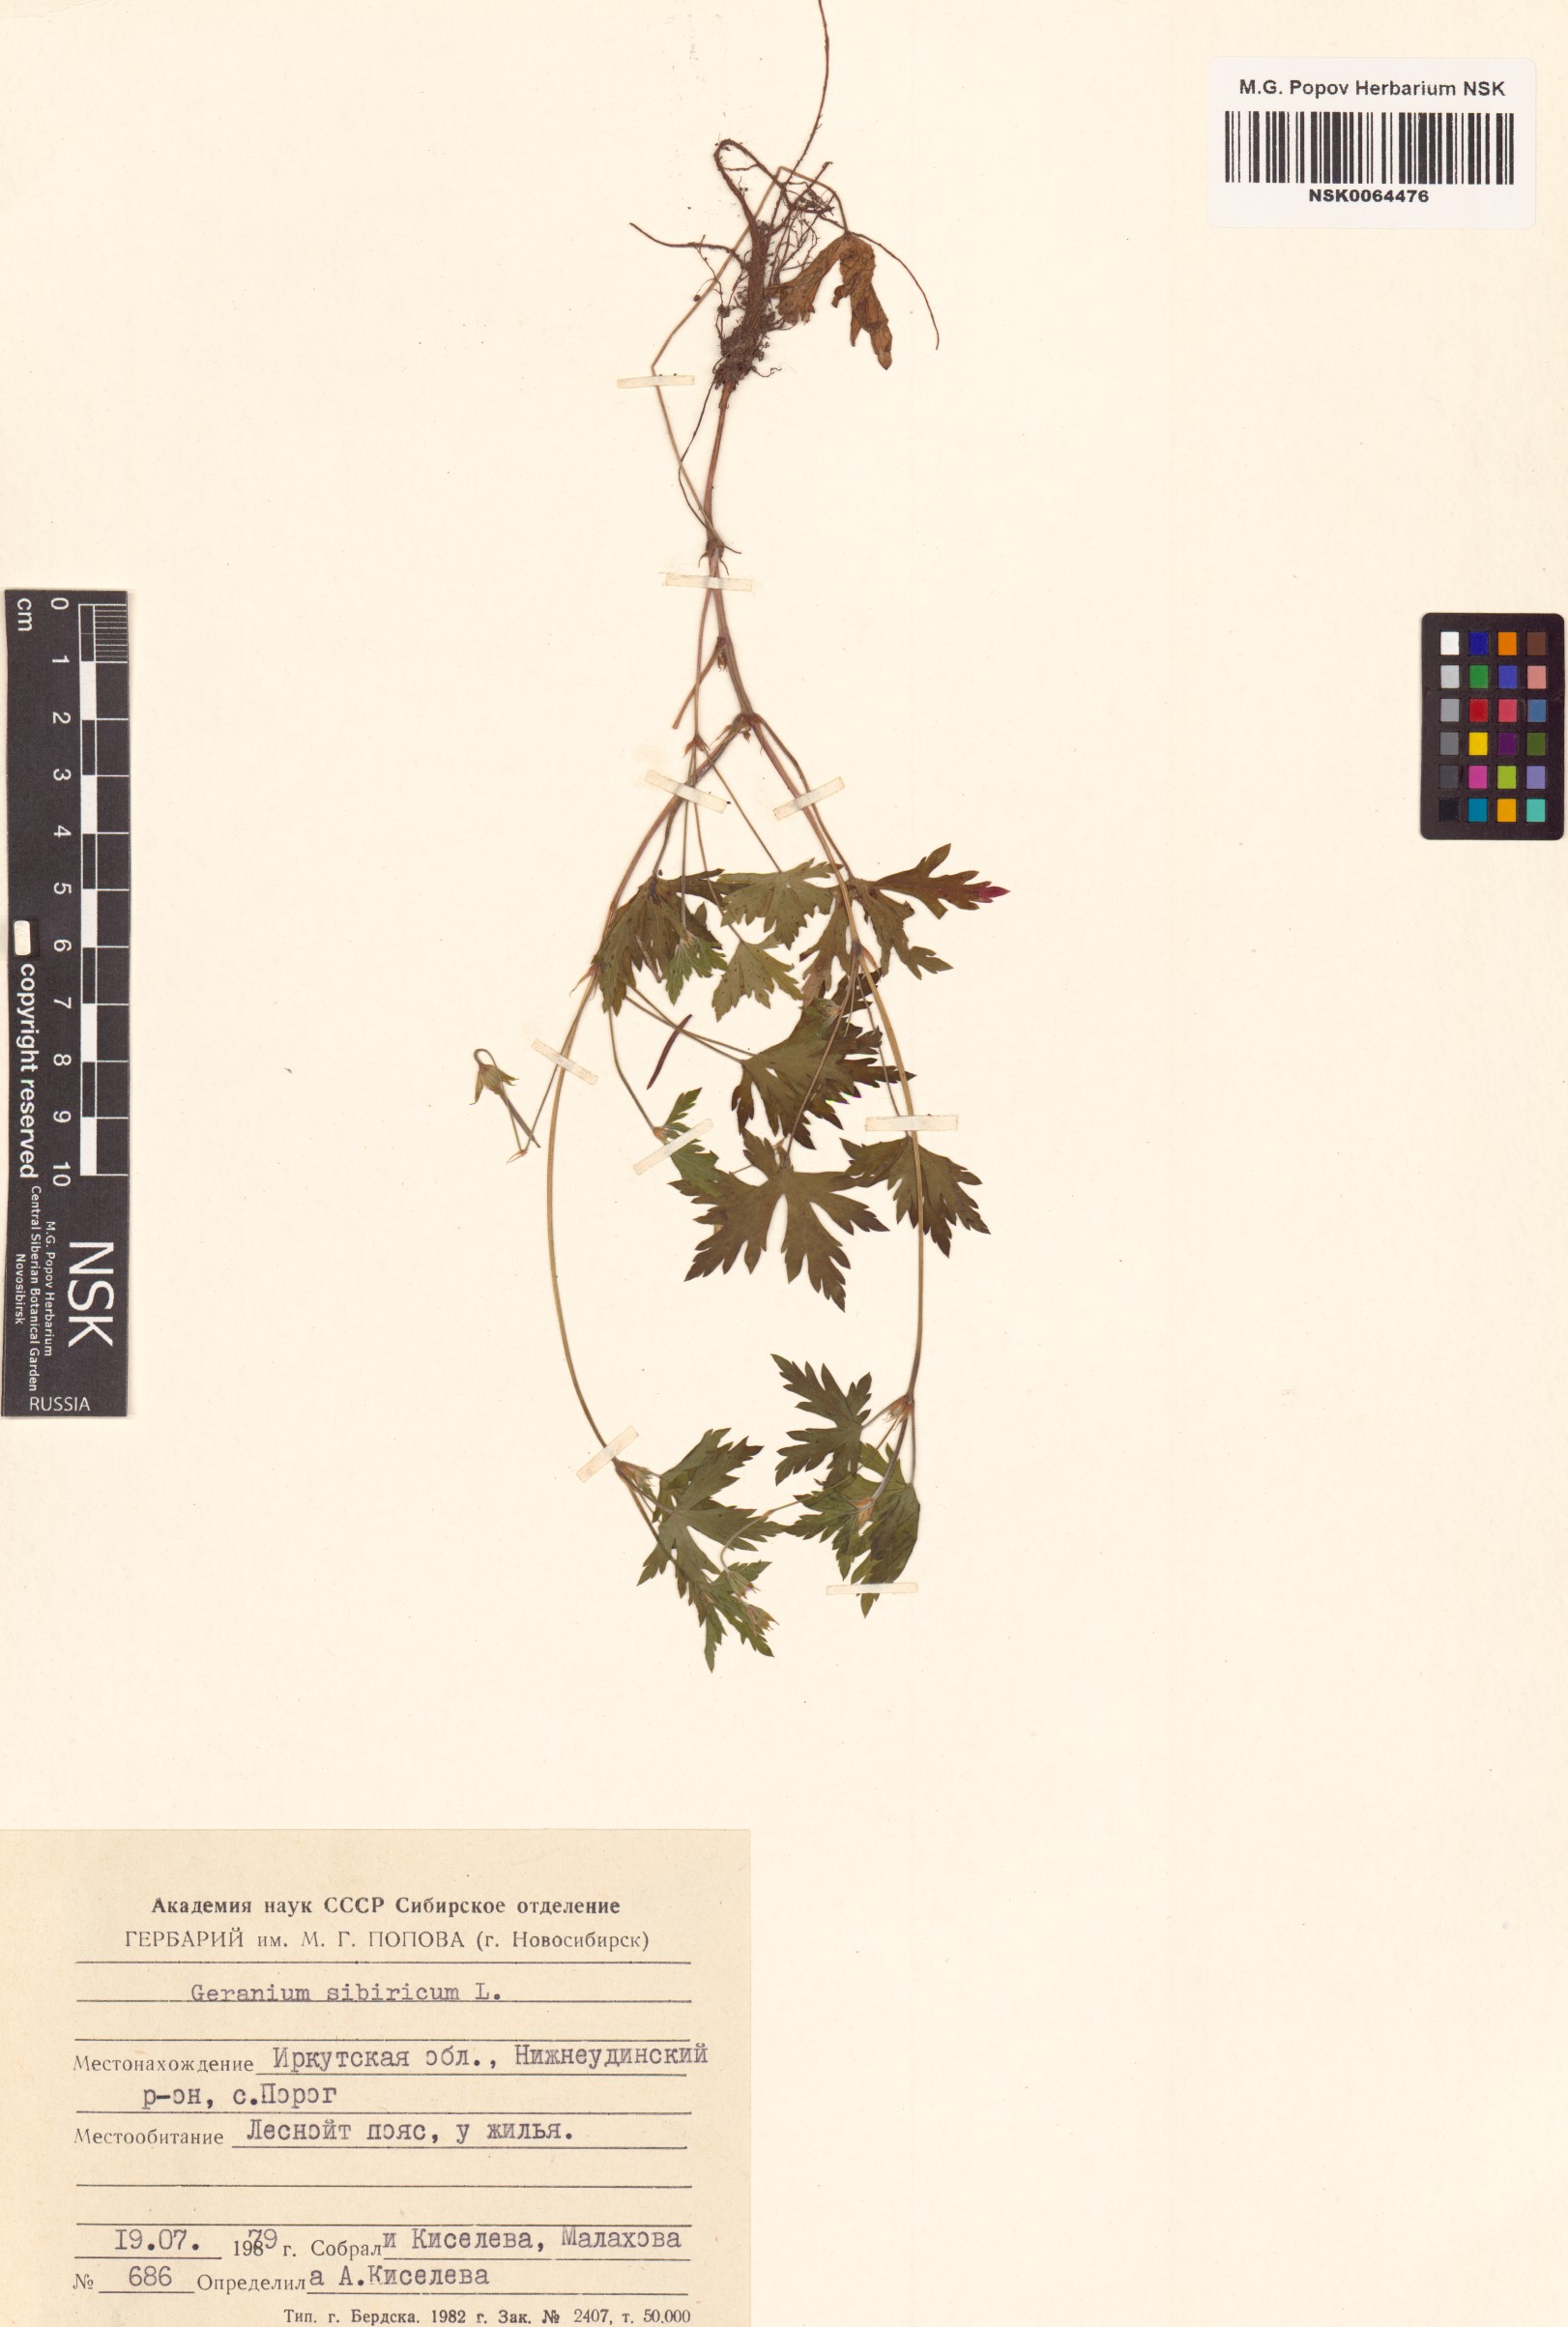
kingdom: Plantae
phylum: Tracheophyta
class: Magnoliopsida
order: Geraniales
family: Geraniaceae
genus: Geranium
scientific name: Geranium sibiricum
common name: Siberian crane's-bill
